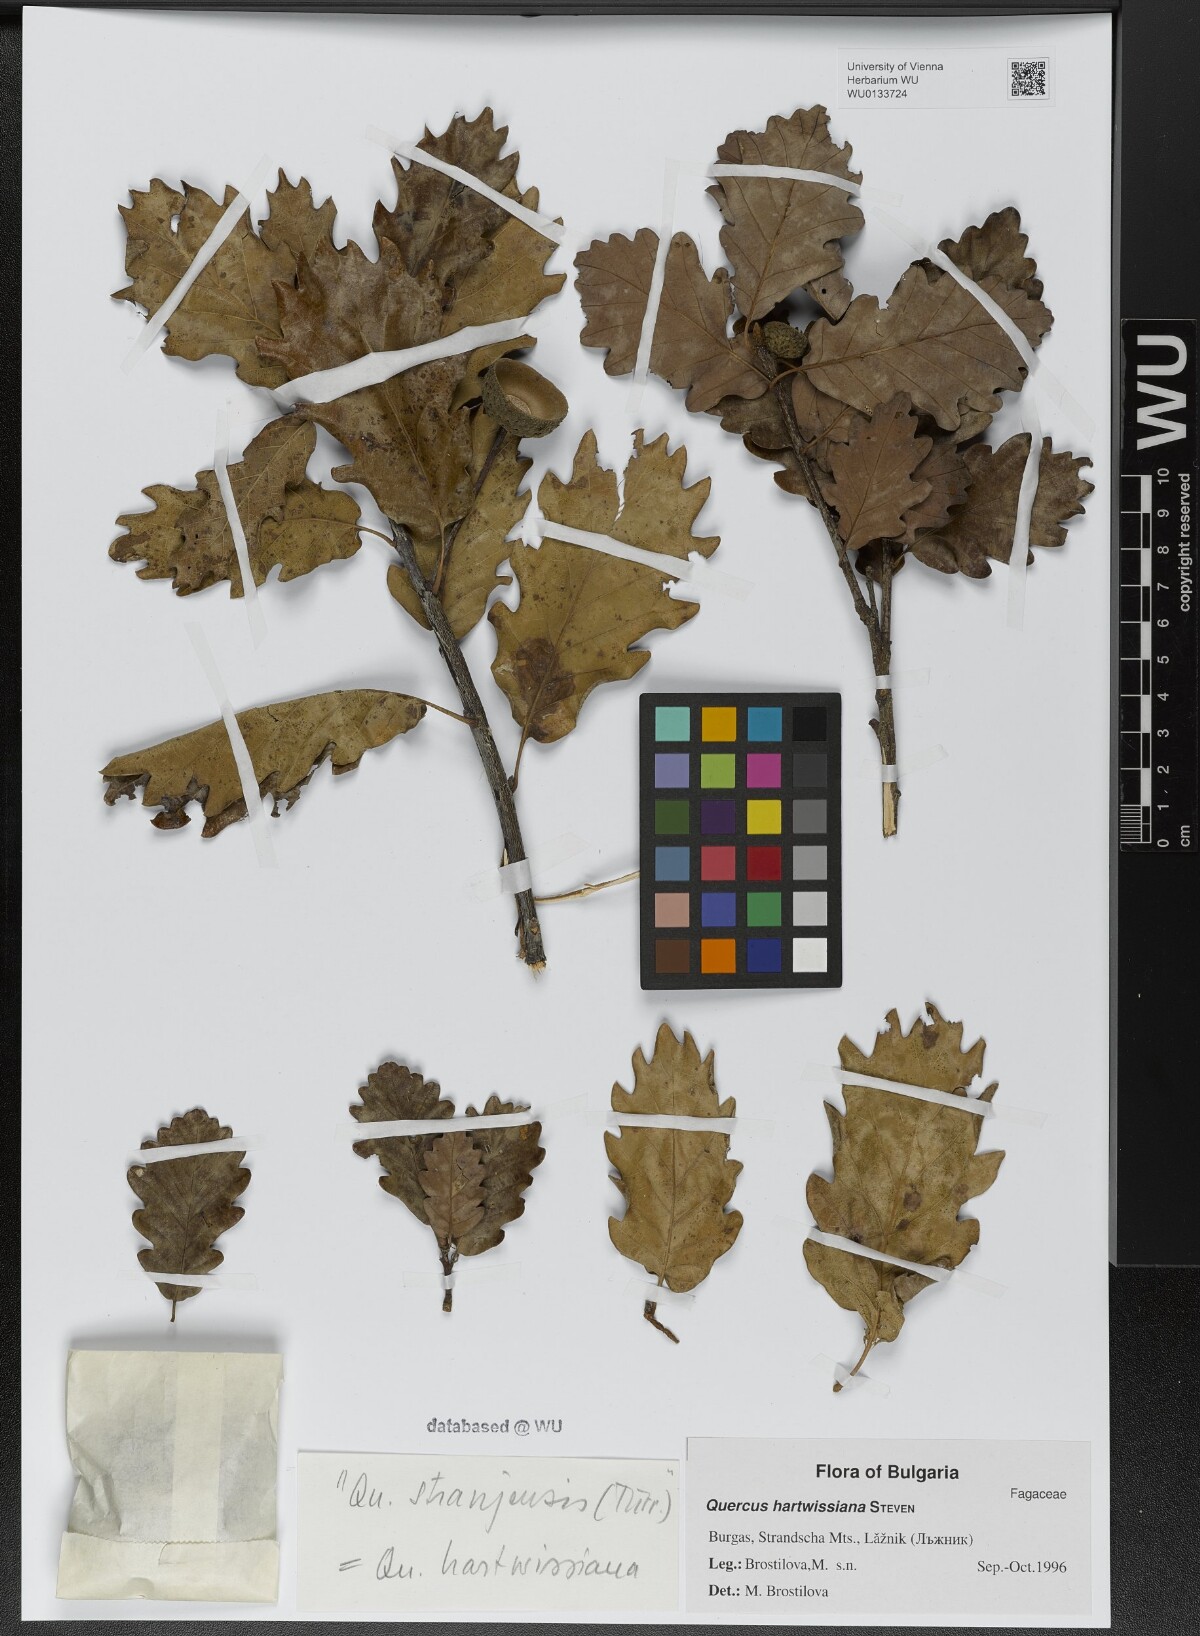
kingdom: Plantae
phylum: Tracheophyta
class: Magnoliopsida
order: Fagales
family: Fagaceae
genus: Quercus
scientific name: Quercus hartwissiana
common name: Strandzha oak
